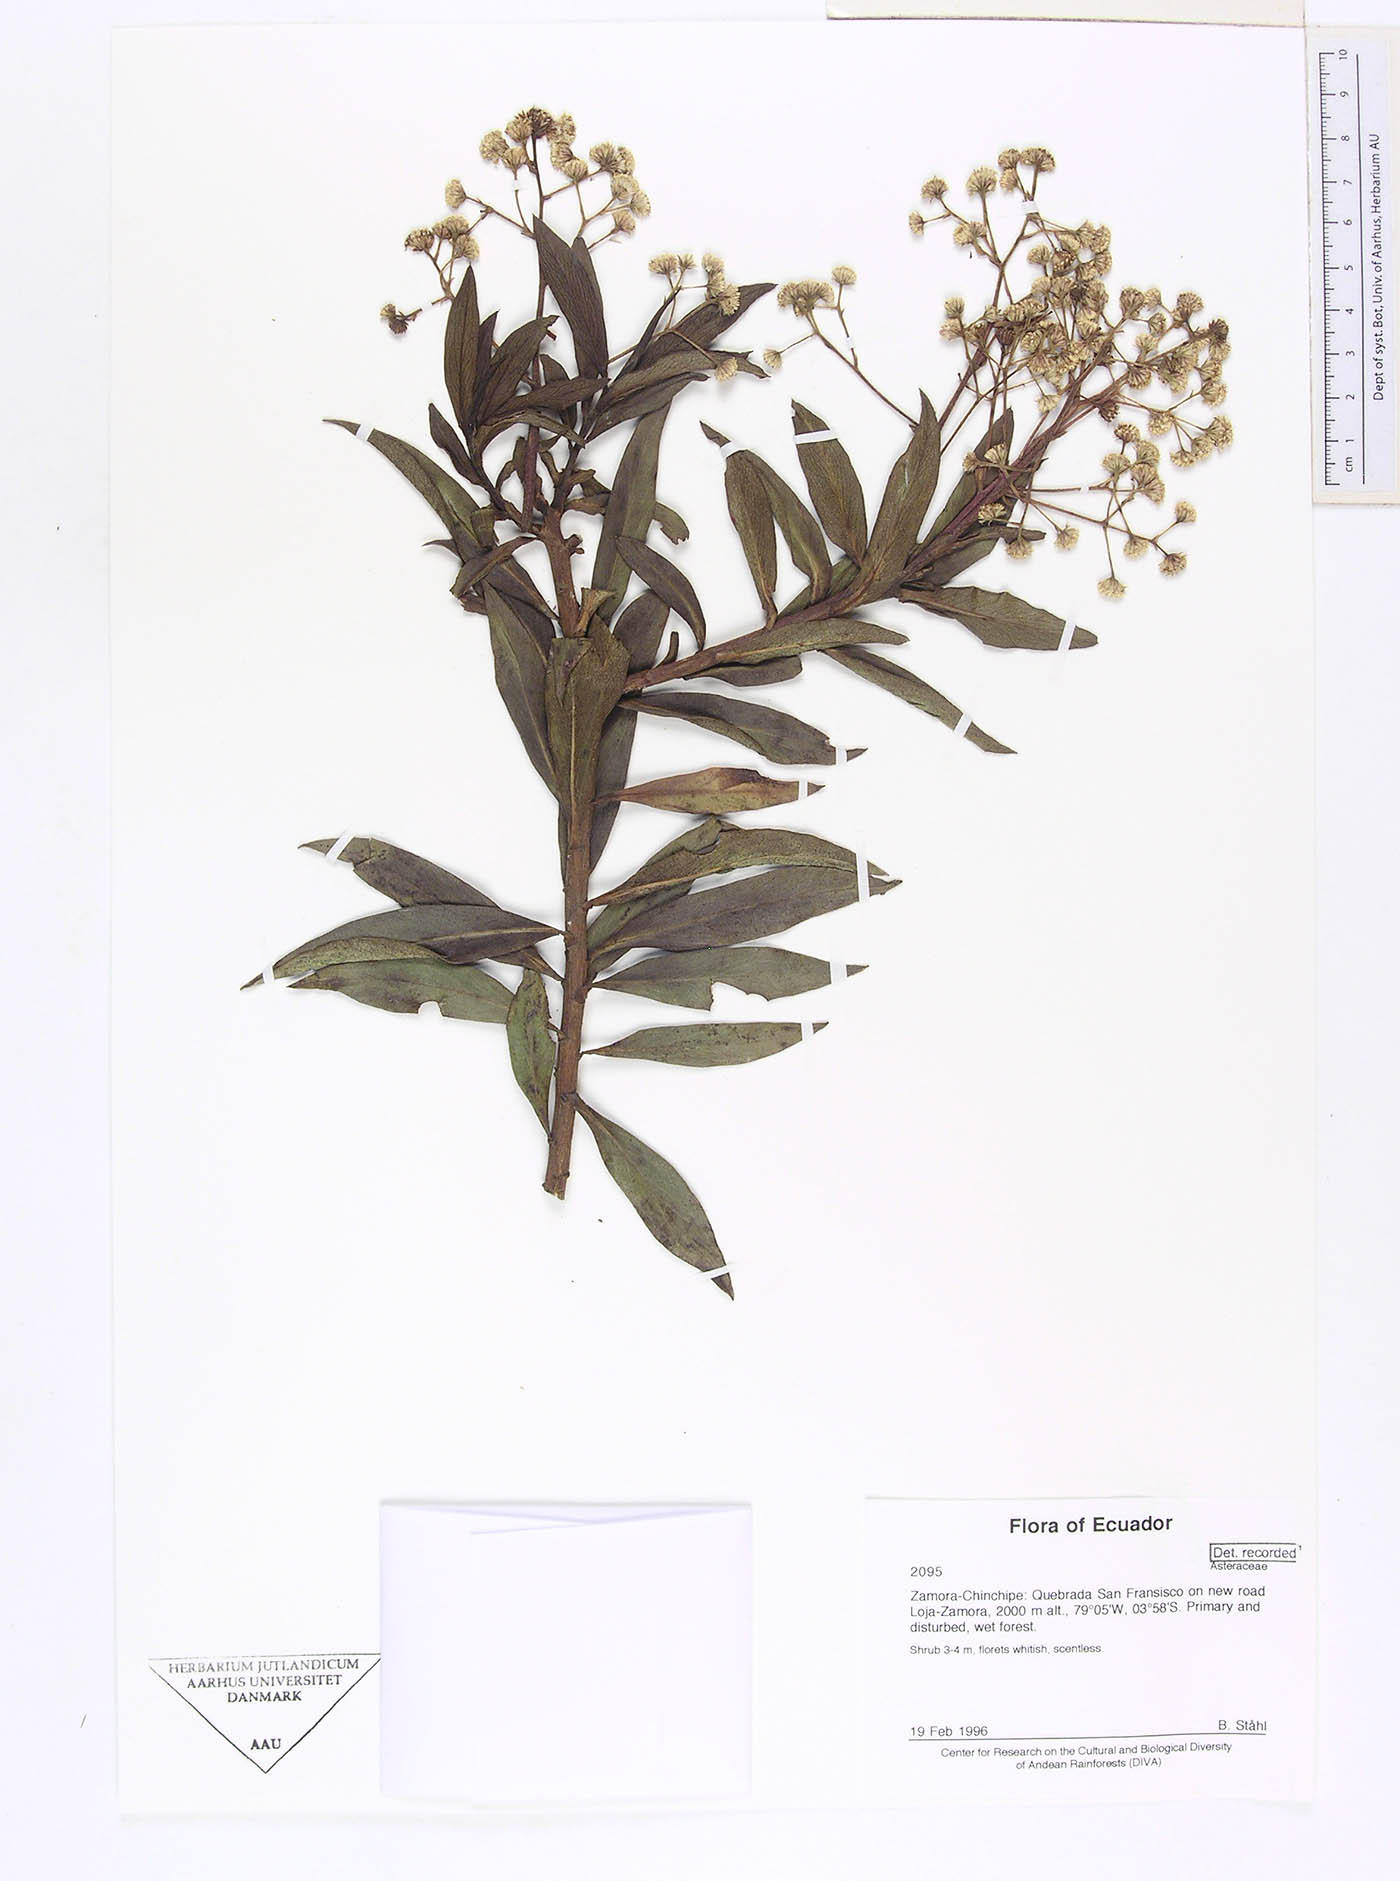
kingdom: Plantae
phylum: Tracheophyta
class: Magnoliopsida
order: Asterales
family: Asteraceae
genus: Baccharis
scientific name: Baccharis oblongifolia
